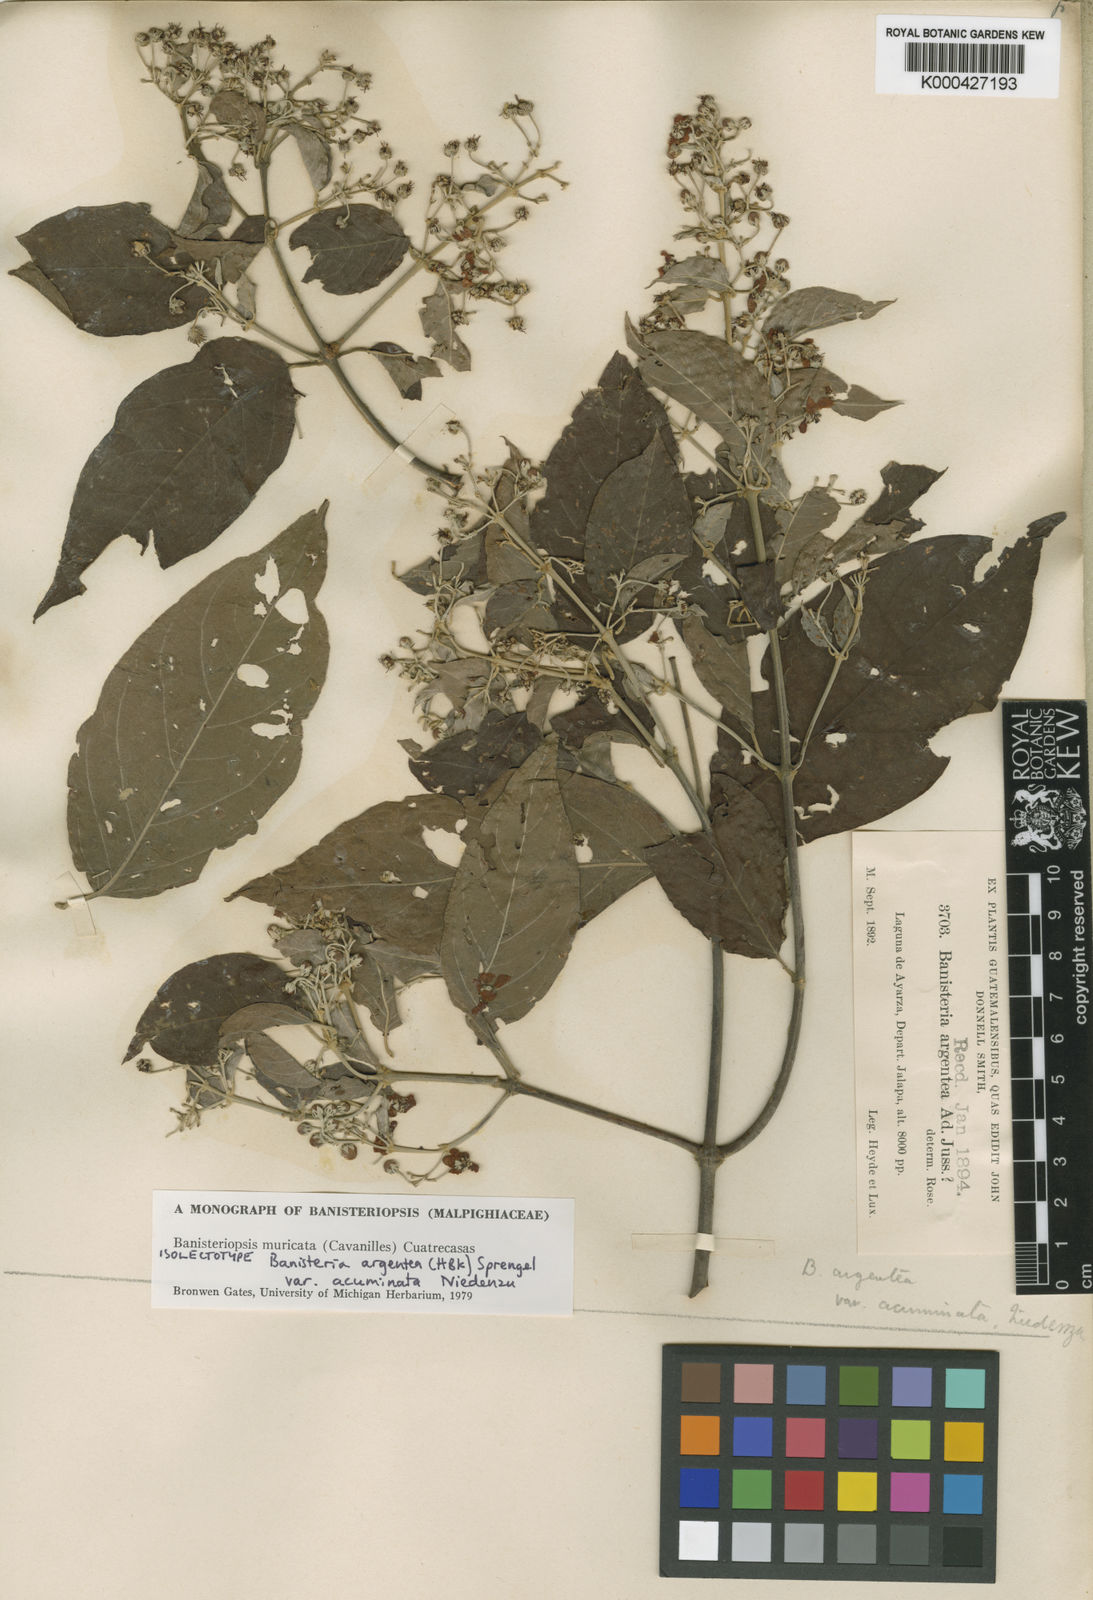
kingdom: Plantae
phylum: Tracheophyta
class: Magnoliopsida
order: Malpighiales
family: Malpighiaceae
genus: Banisteriopsis
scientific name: Banisteriopsis muricata
